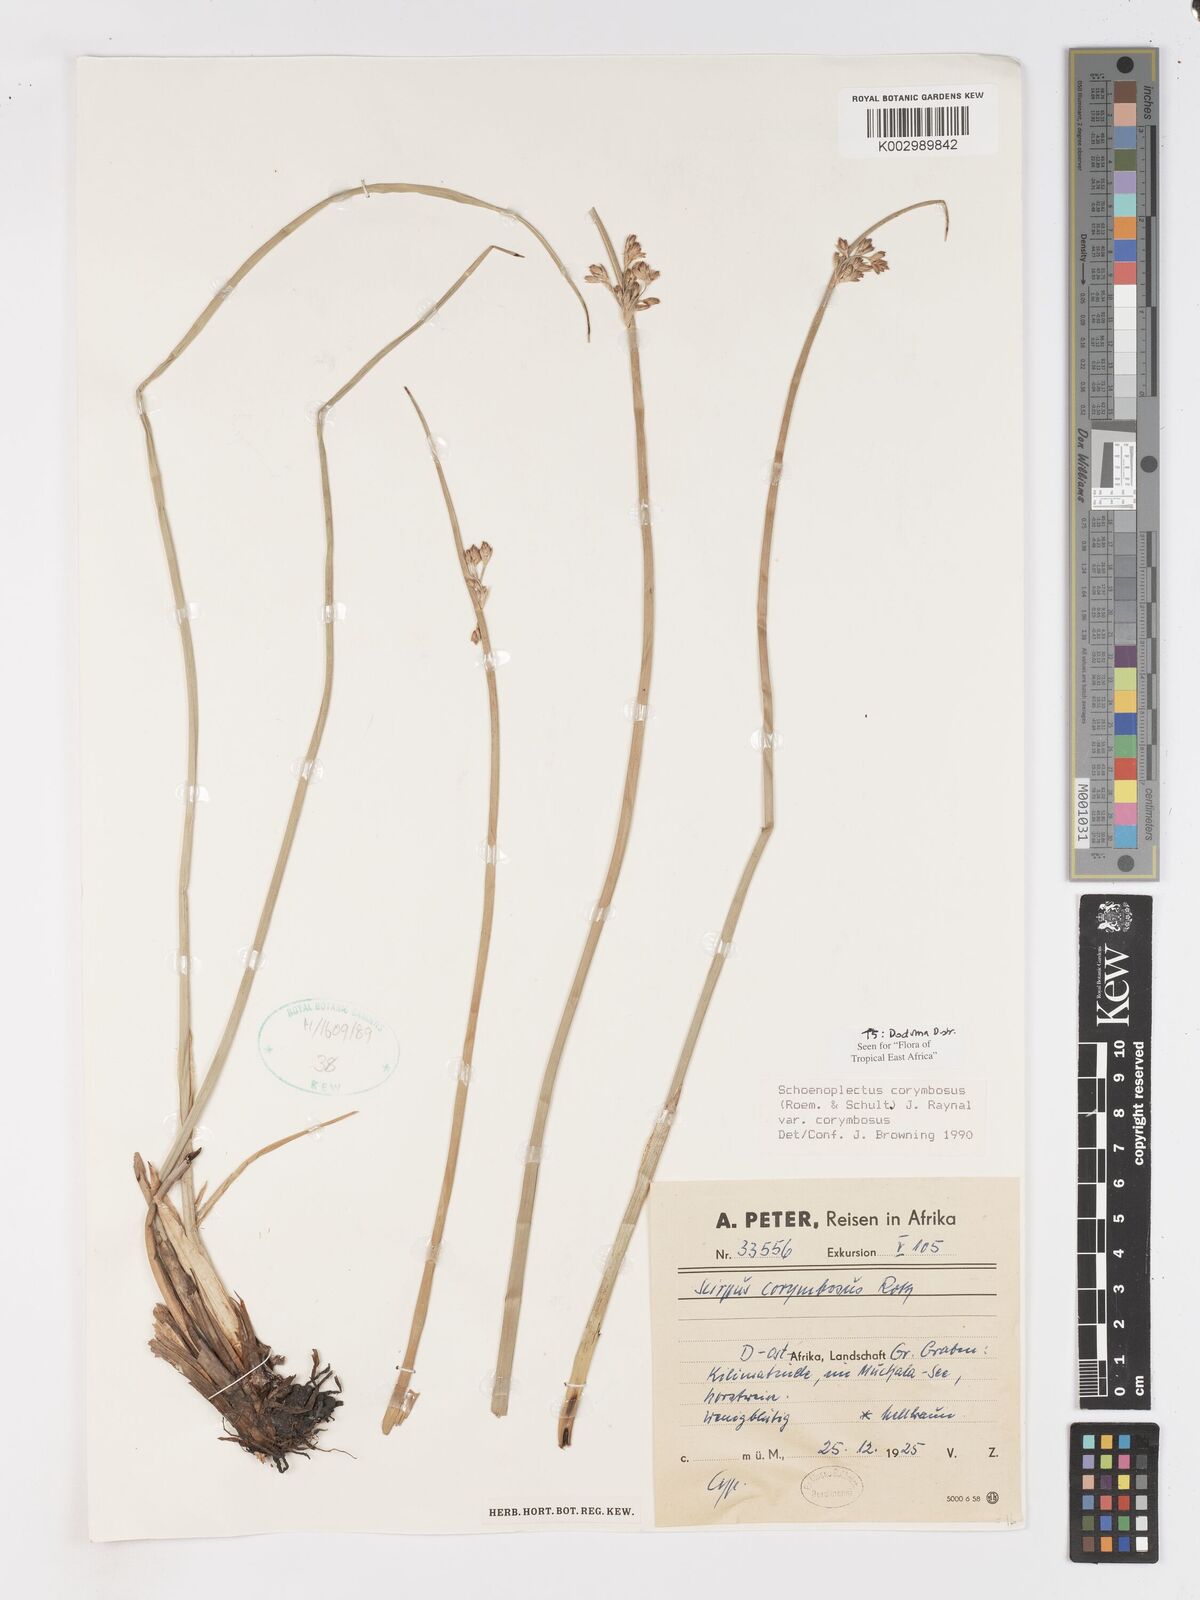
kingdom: Plantae
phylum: Tracheophyta
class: Liliopsida
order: Poales
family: Cyperaceae
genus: Schoenoplectiella
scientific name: Schoenoplectiella corymbosa
